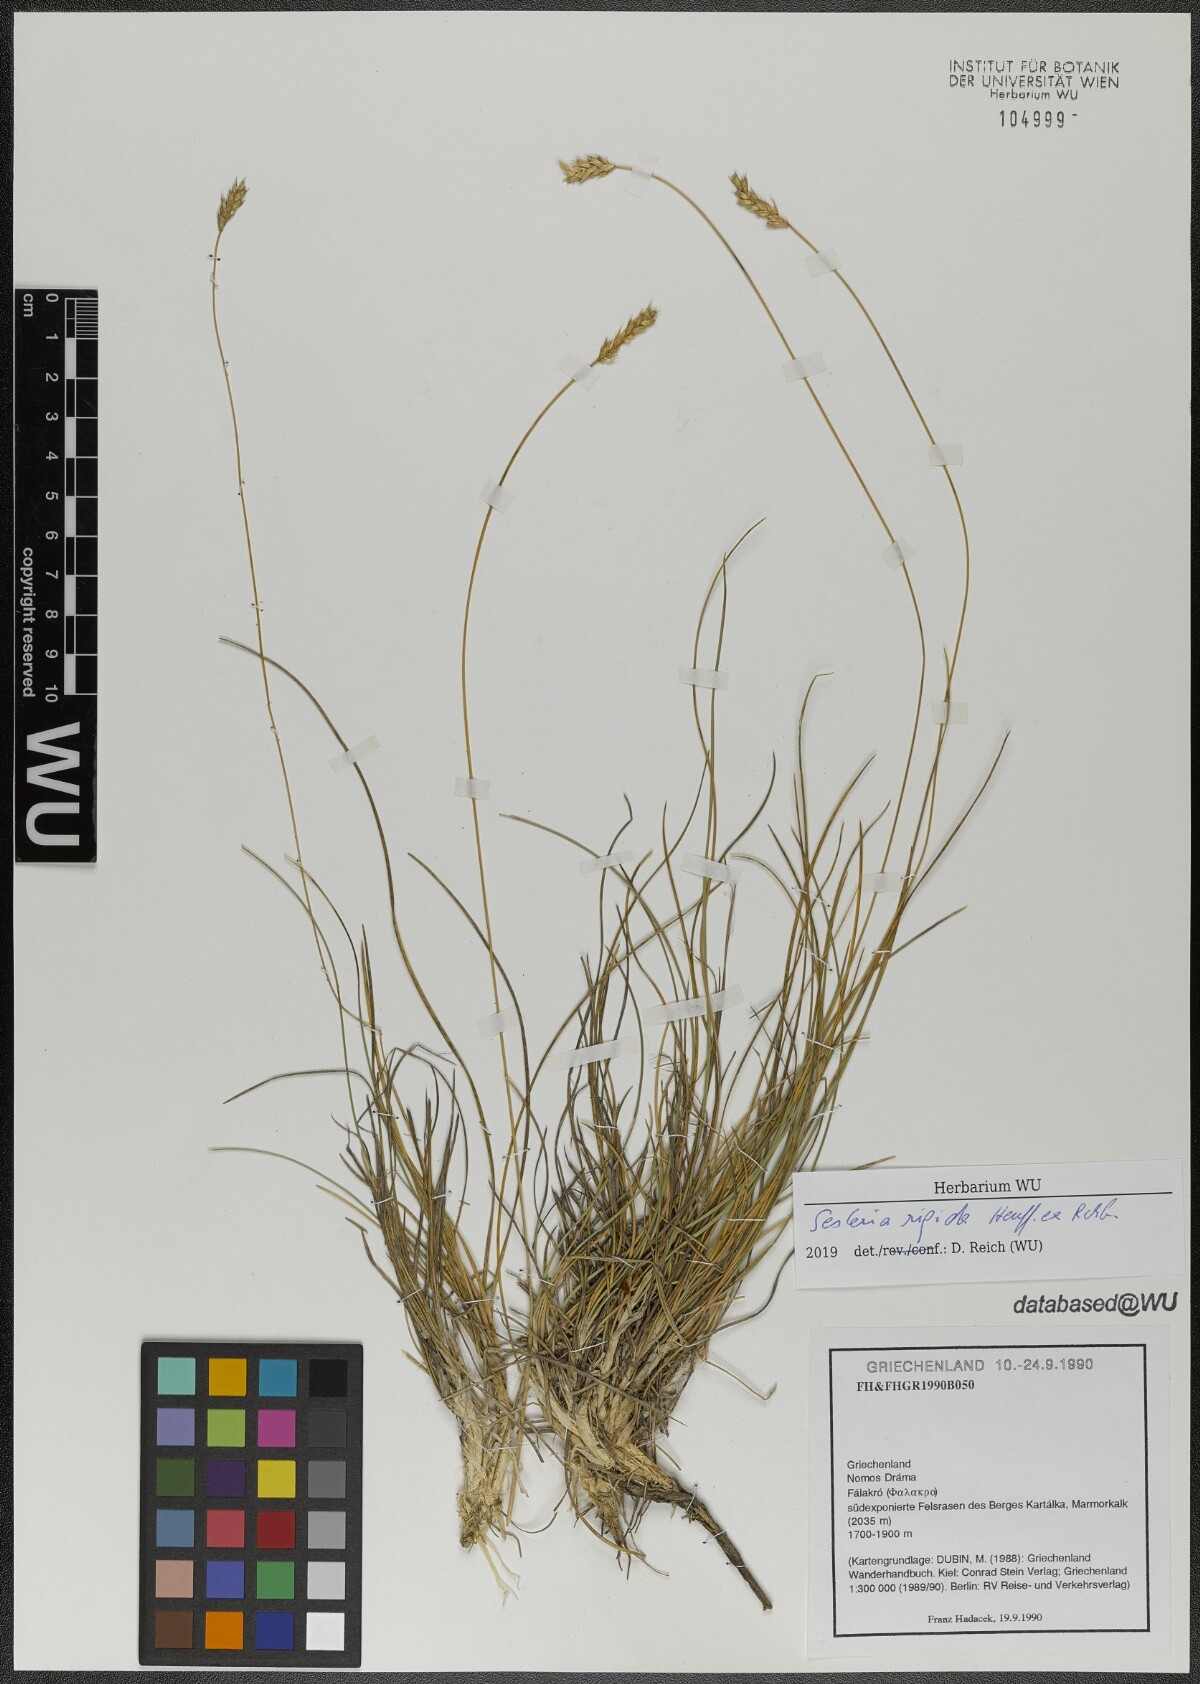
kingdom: Plantae
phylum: Tracheophyta
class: Liliopsida
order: Poales
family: Poaceae
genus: Sesleria
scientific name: Sesleria rigida
